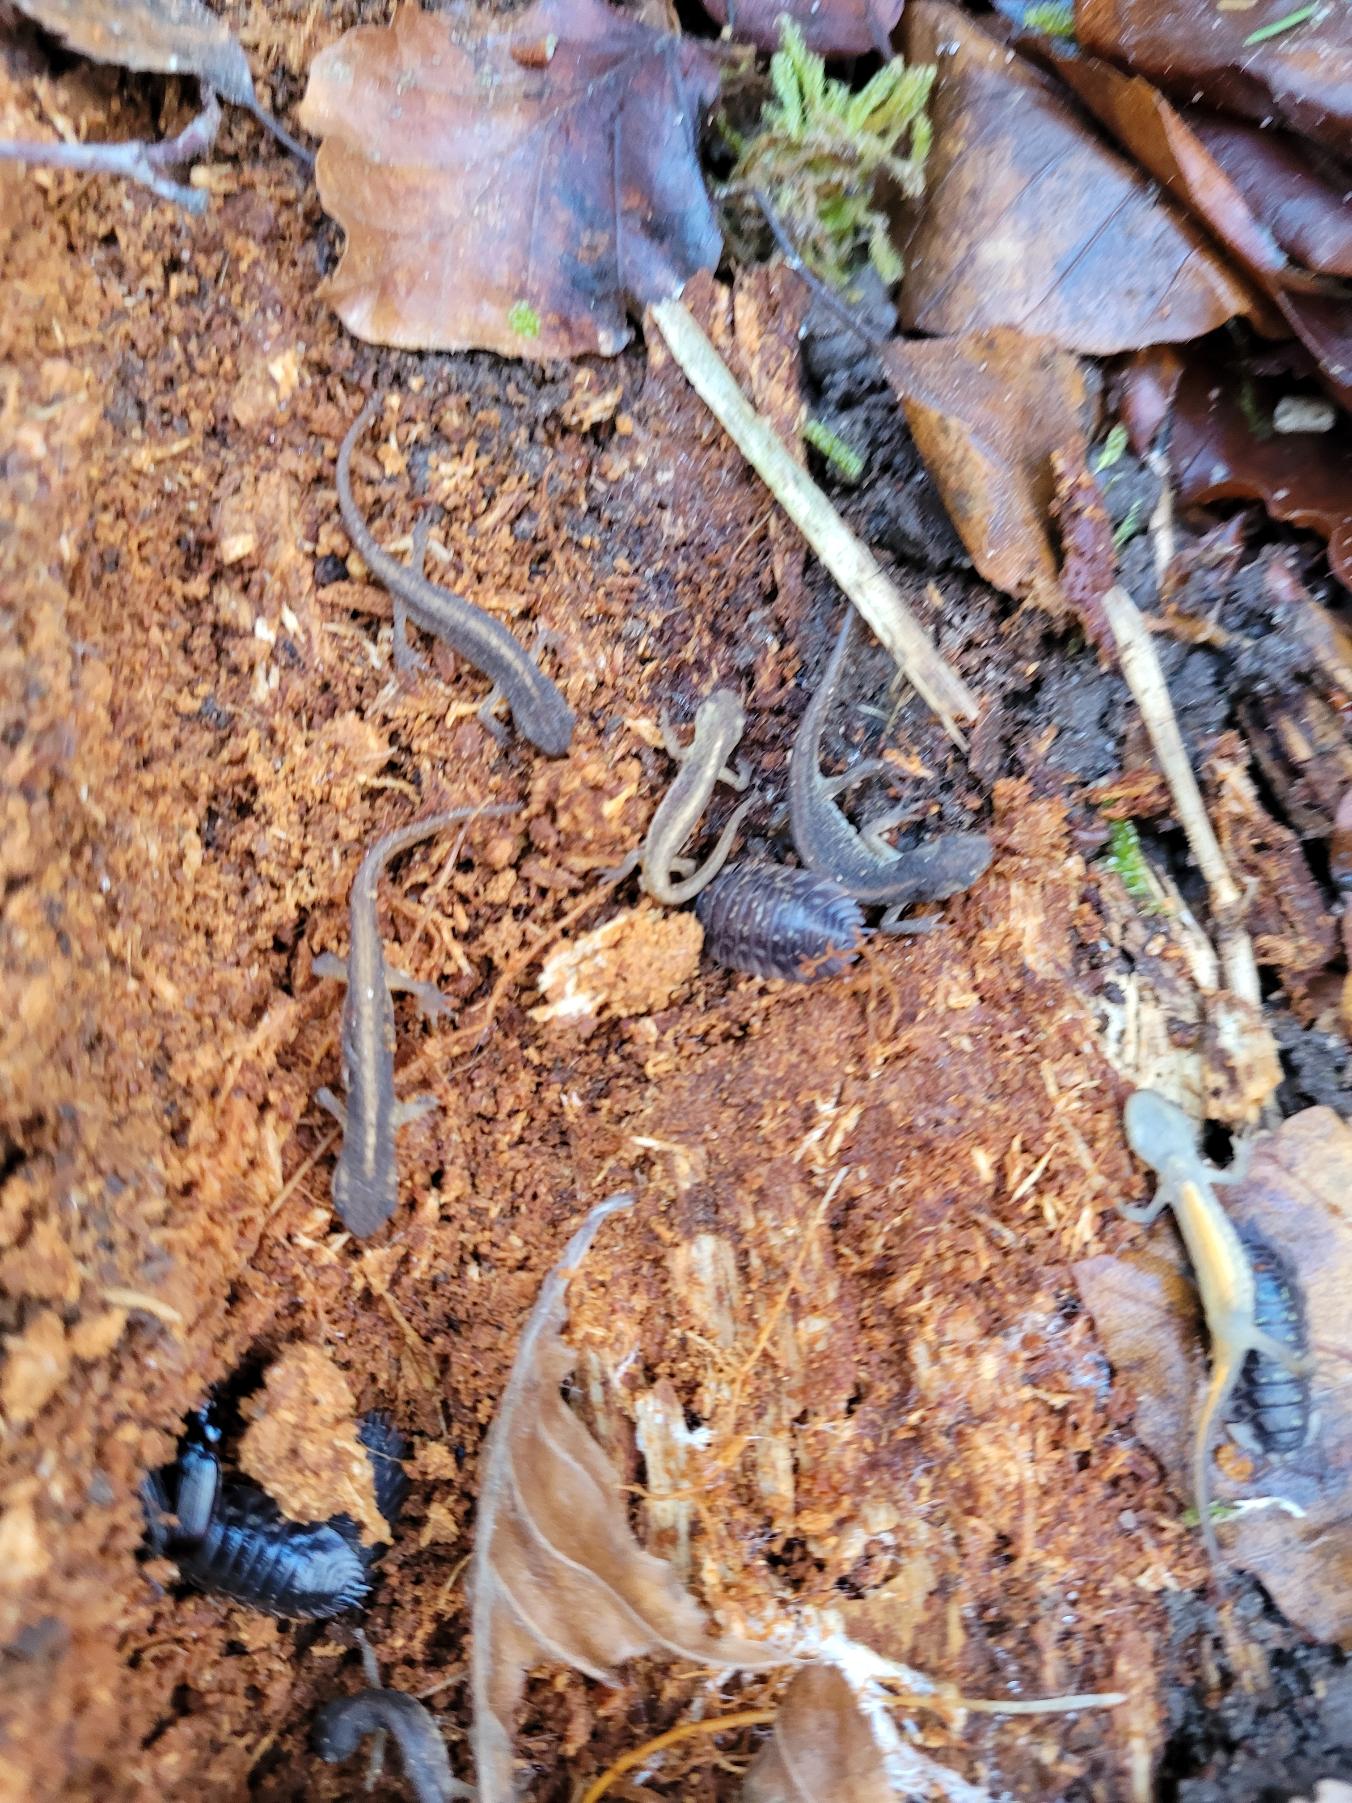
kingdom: Animalia
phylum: Chordata
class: Amphibia
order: Caudata
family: Salamandridae
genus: Lissotriton
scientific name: Lissotriton vulgaris
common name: Lille vandsalamander
